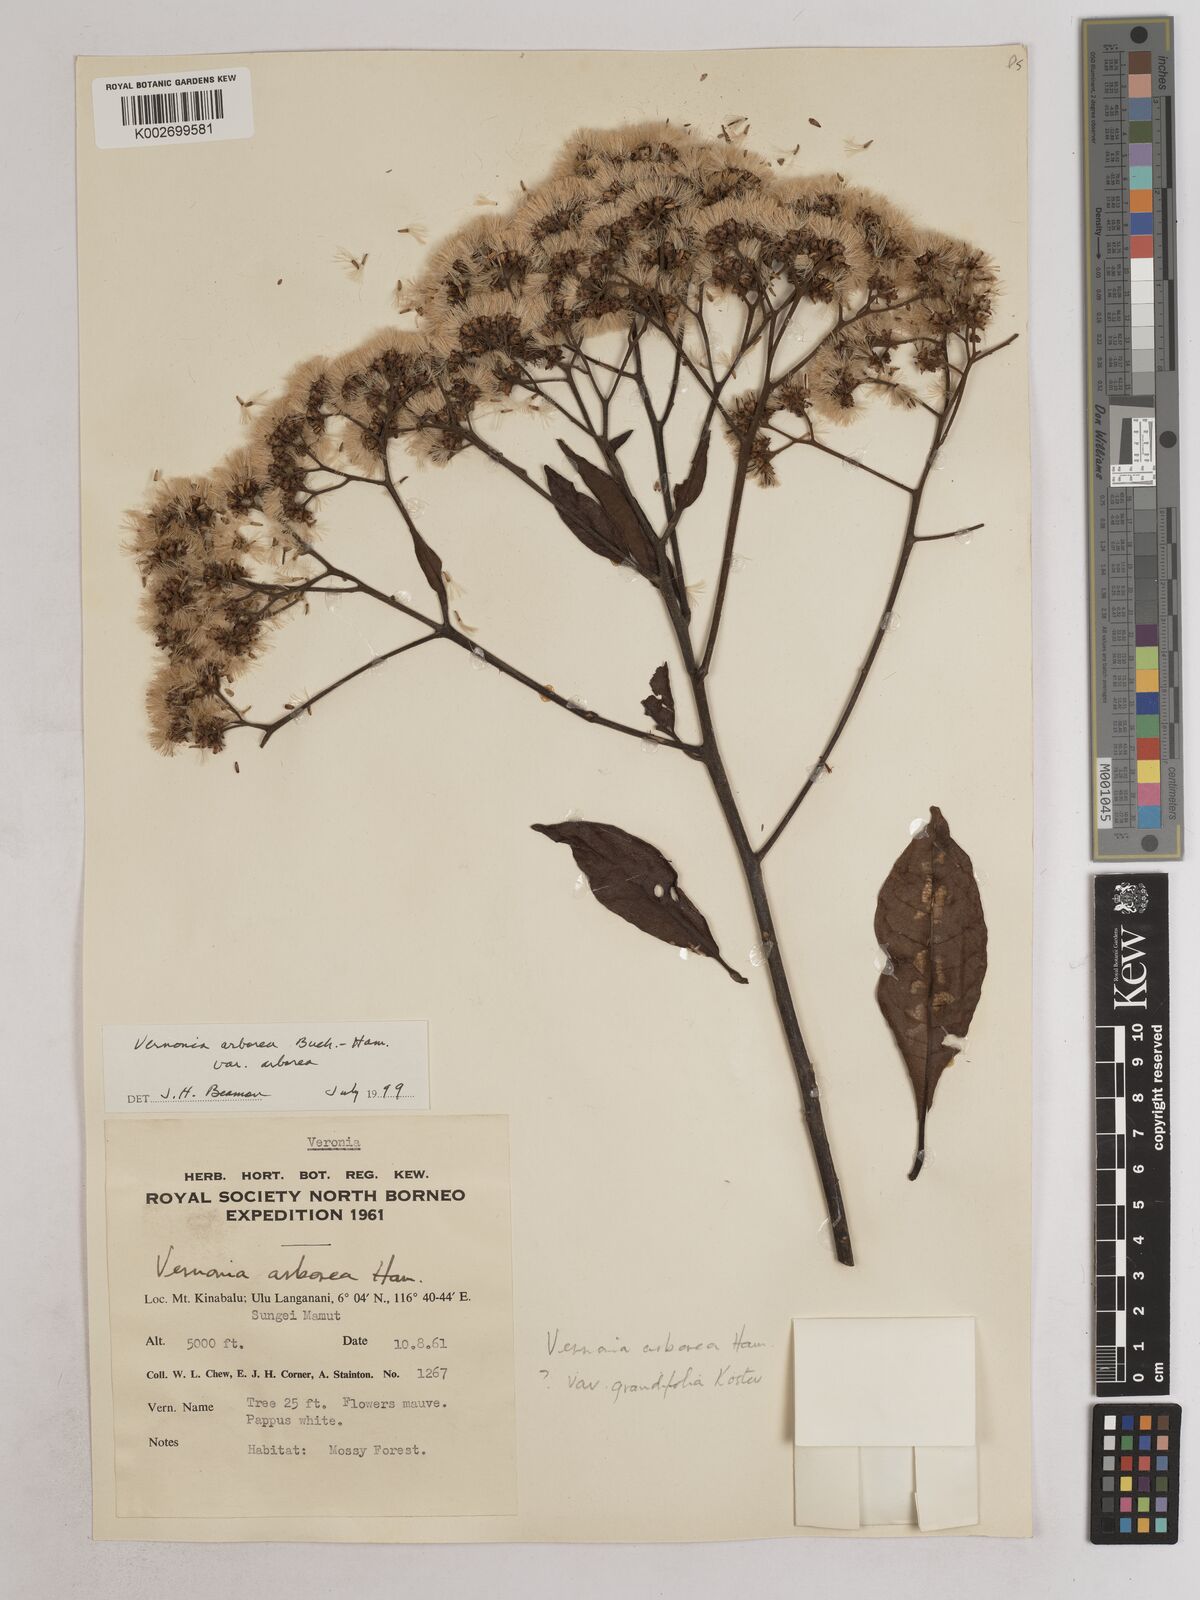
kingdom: Plantae
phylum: Tracheophyta
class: Magnoliopsida
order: Asterales
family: Asteraceae
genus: Strobocalyx
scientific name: Strobocalyx arborea
